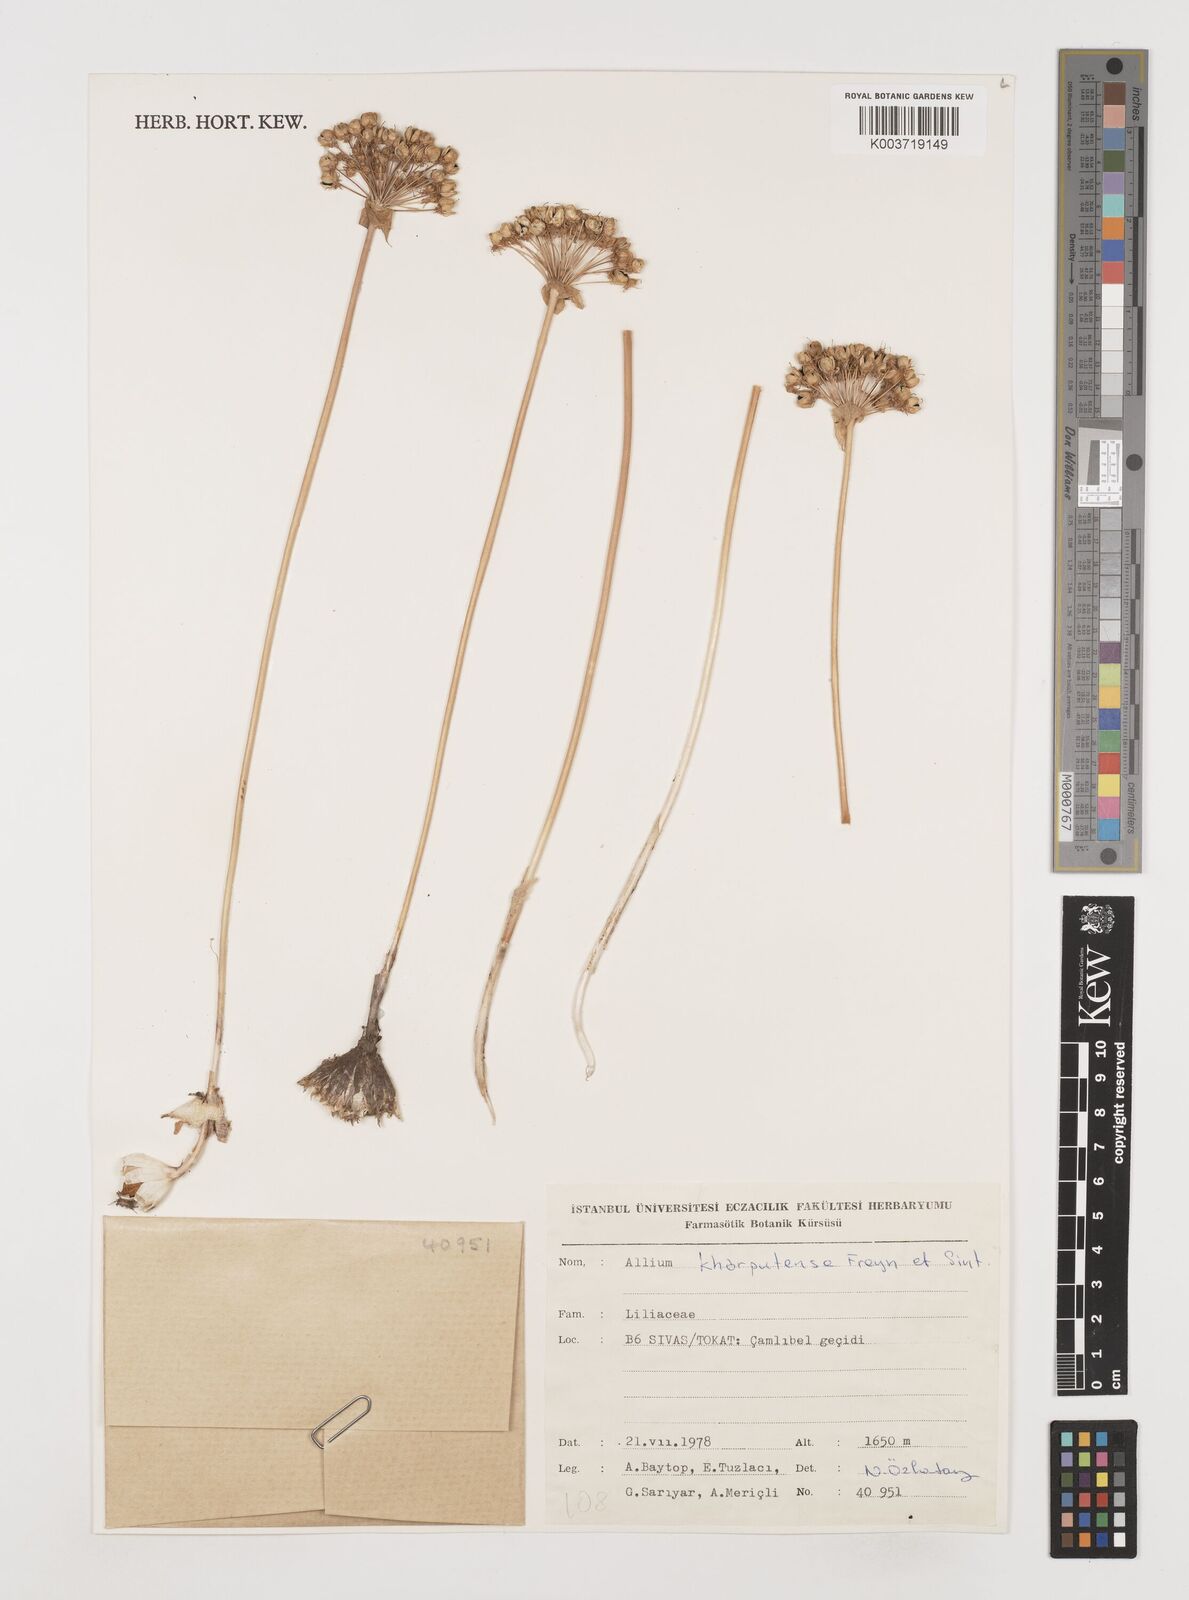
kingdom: Plantae
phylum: Tracheophyta
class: Liliopsida
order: Asparagales
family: Amaryllidaceae
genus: Allium
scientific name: Allium kharputense
